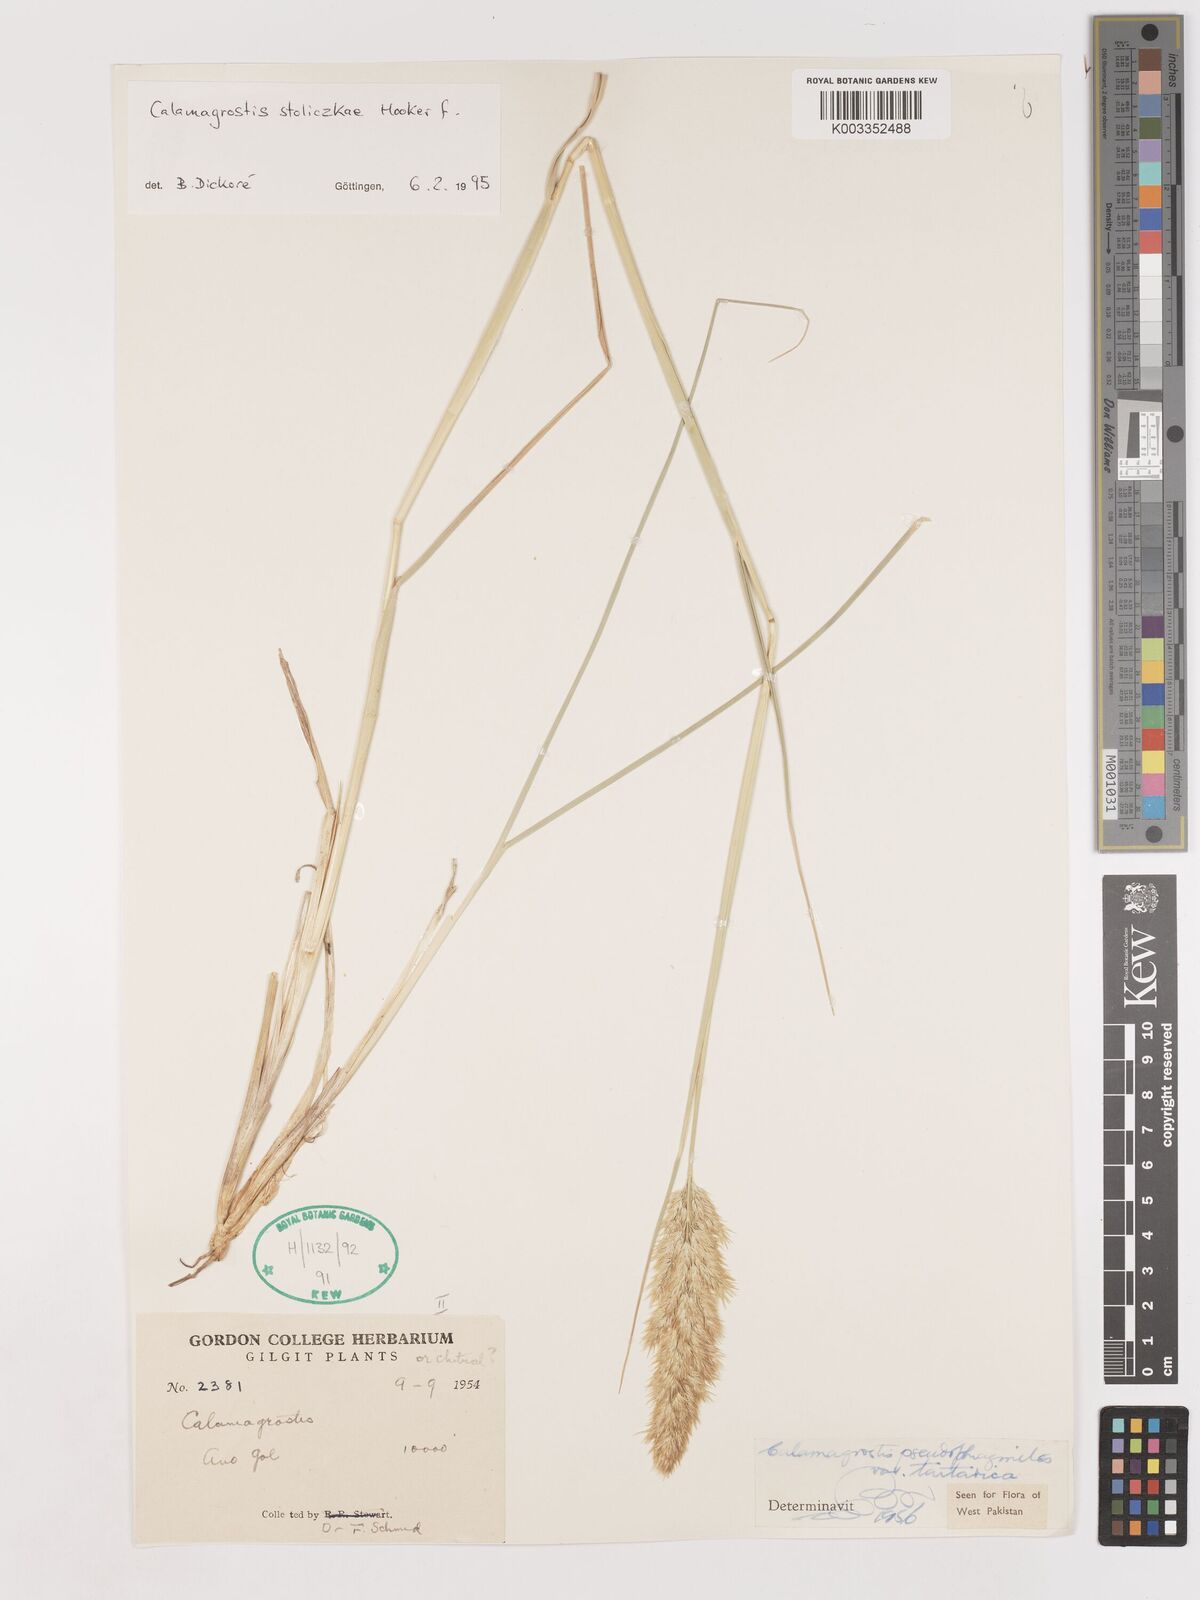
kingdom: Plantae
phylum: Tracheophyta
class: Liliopsida
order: Poales
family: Poaceae
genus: Calamagrostis
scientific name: Calamagrostis stolizkae
